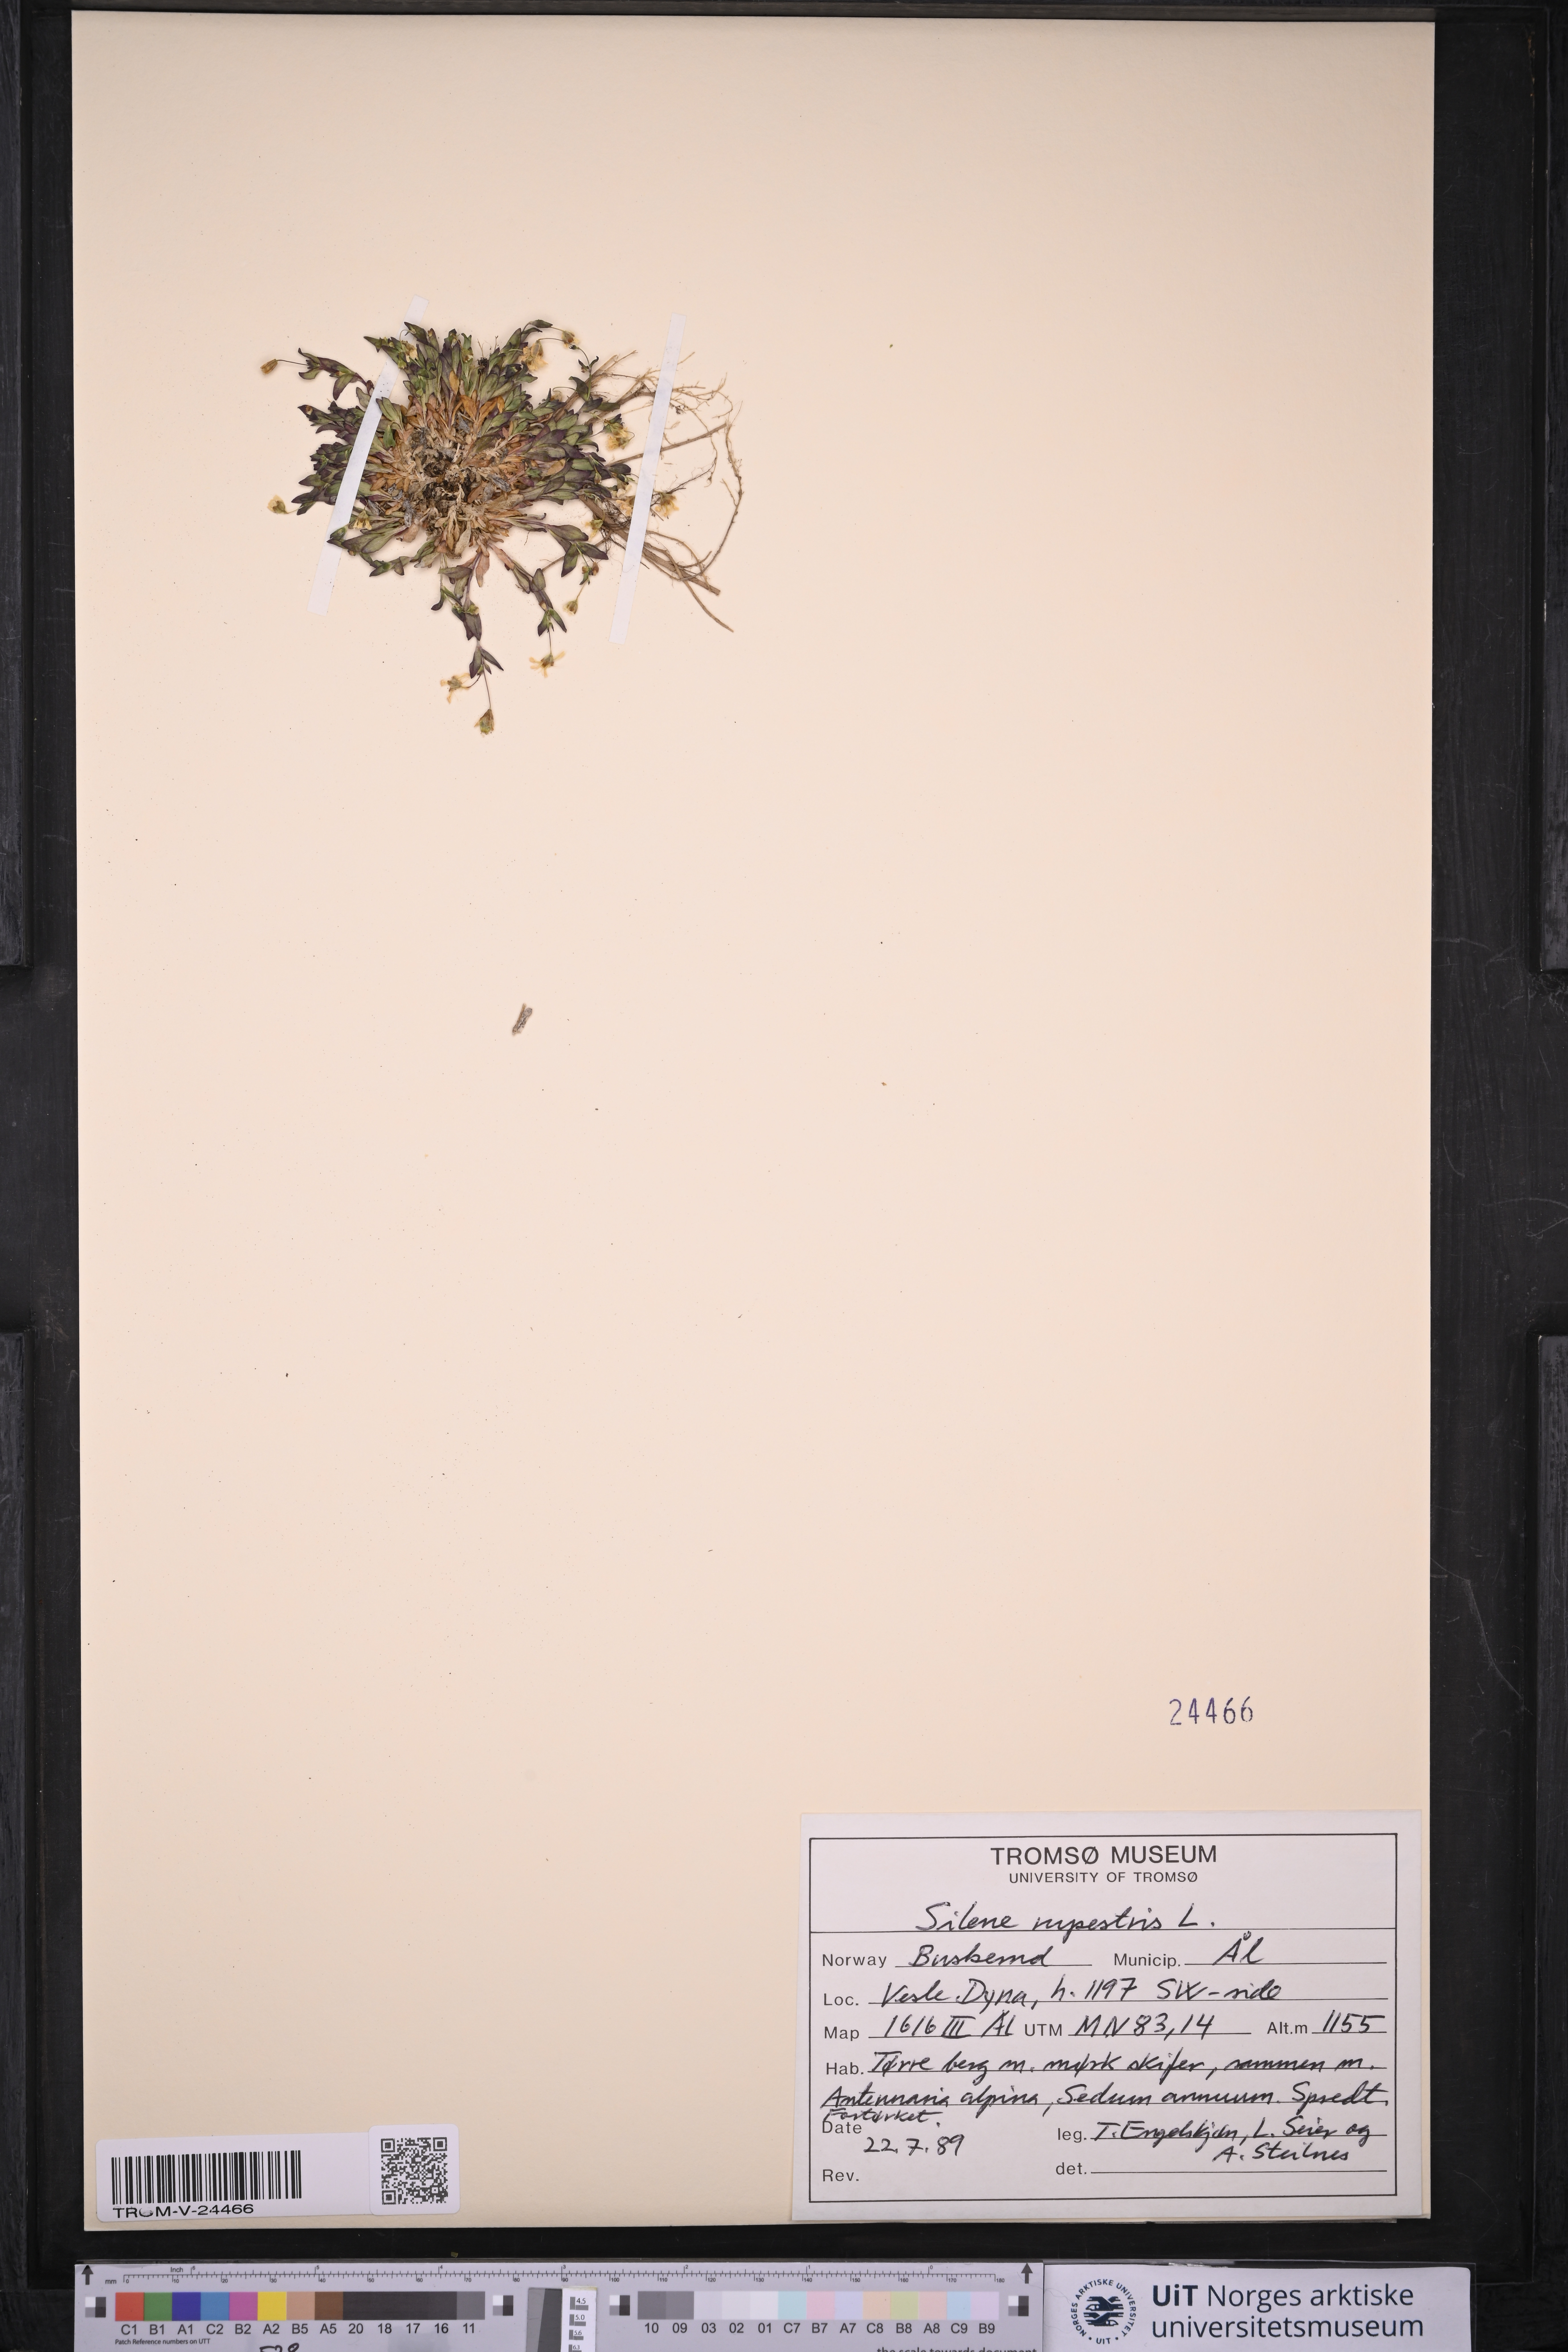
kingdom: Plantae
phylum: Tracheophyta
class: Magnoliopsida
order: Caryophyllales
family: Caryophyllaceae
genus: Atocion
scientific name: Atocion rupestre
